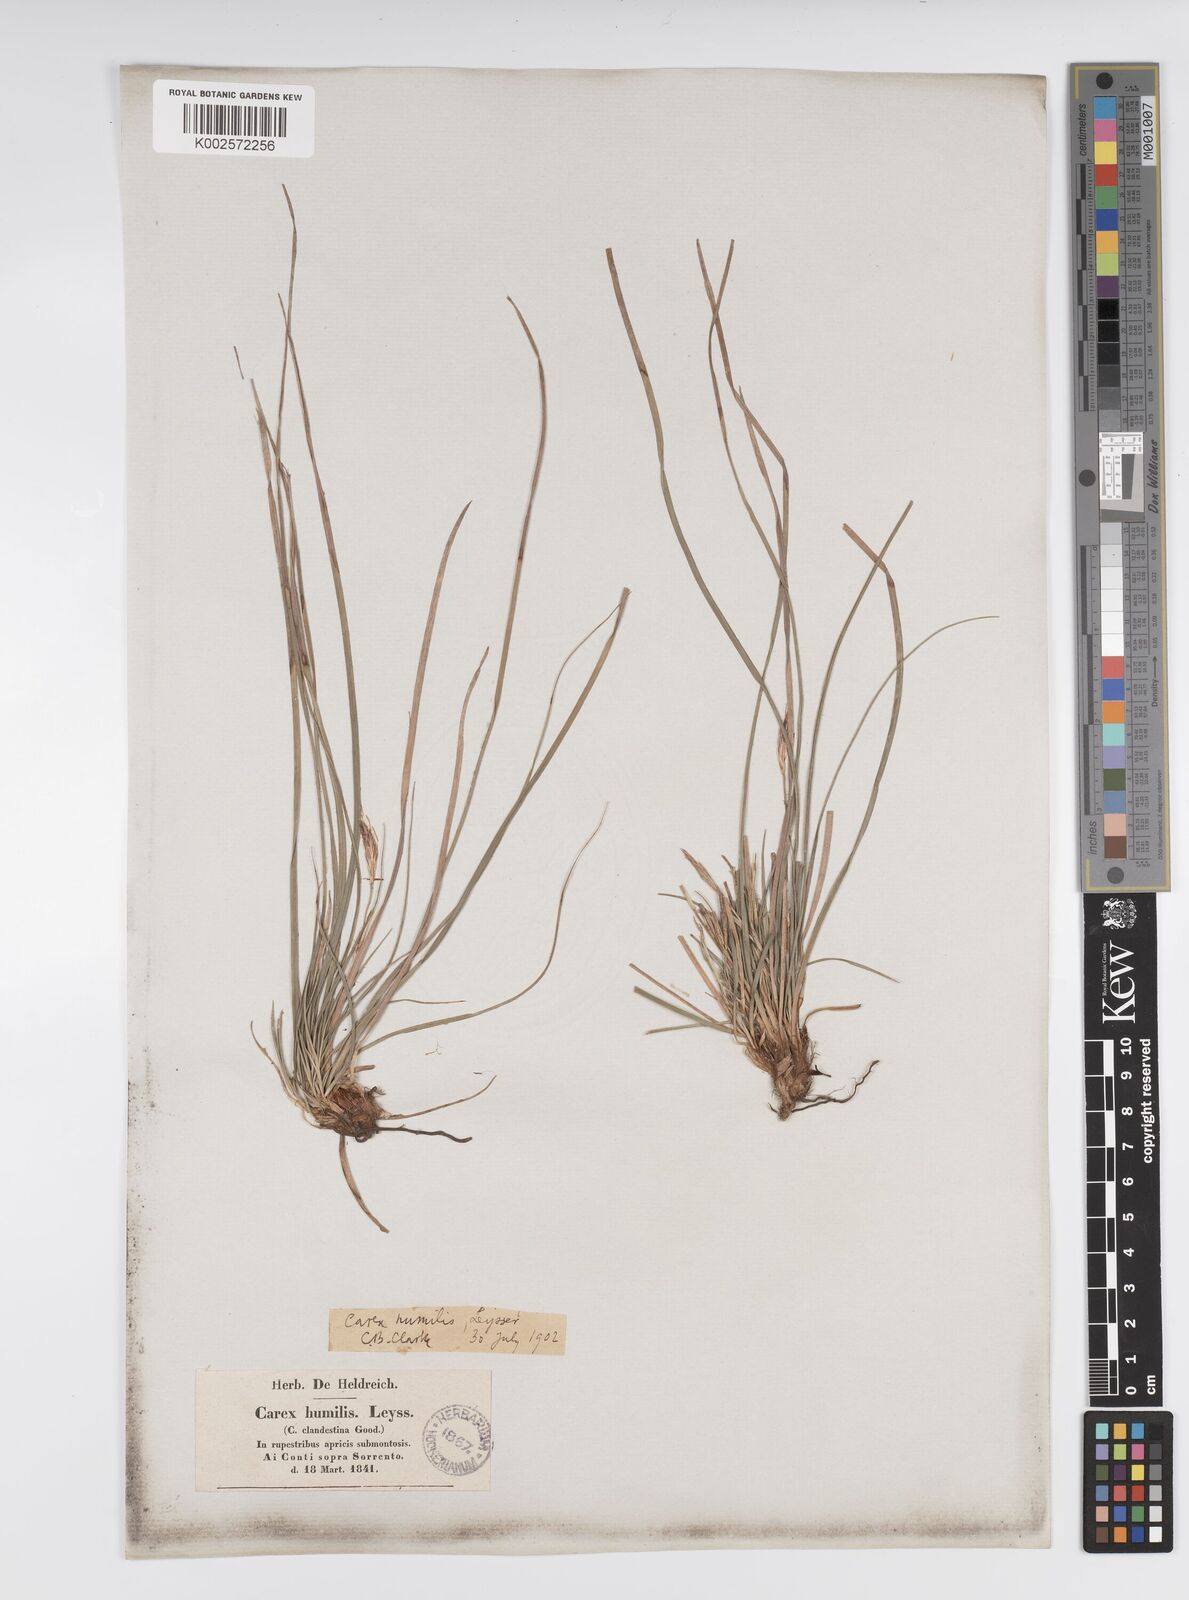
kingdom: Plantae
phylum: Tracheophyta
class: Liliopsida
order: Poales
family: Cyperaceae
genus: Carex
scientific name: Carex humilis
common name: Dwarf sedge
